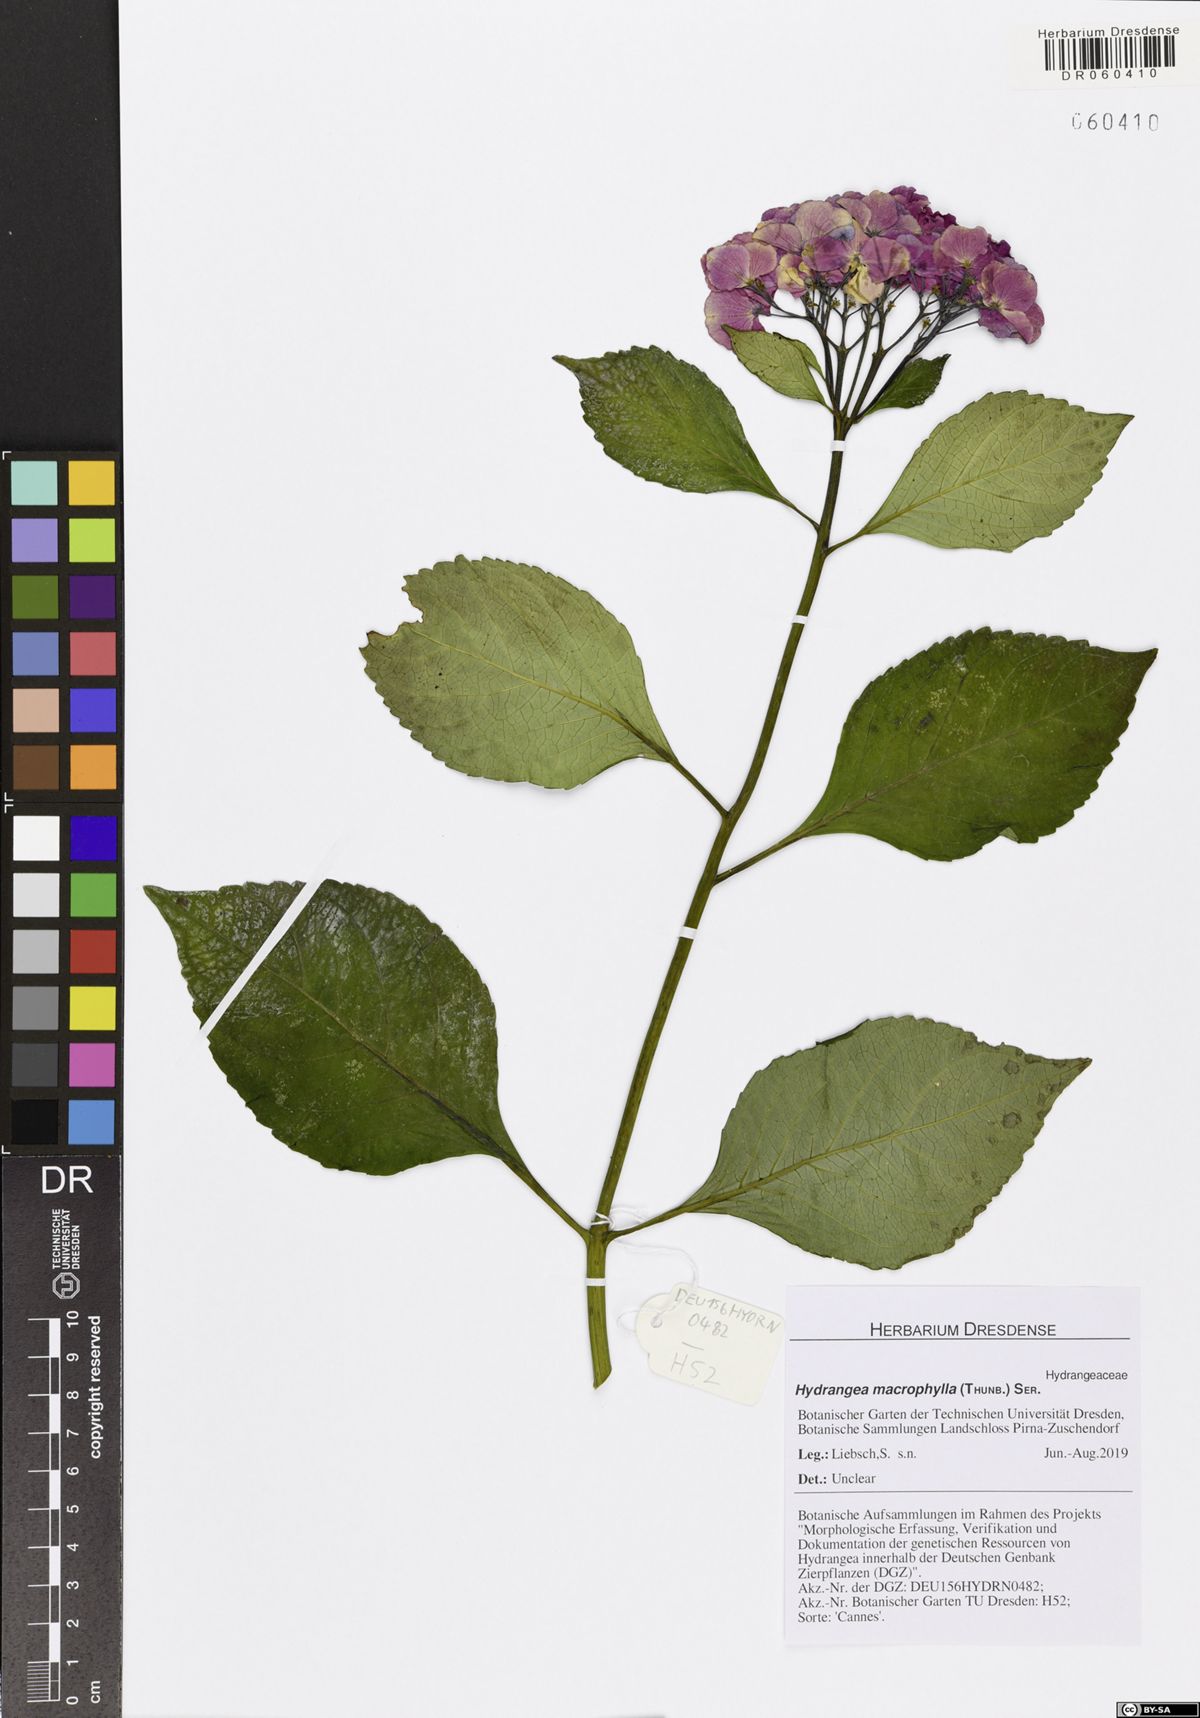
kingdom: Plantae
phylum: Tracheophyta
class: Magnoliopsida
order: Cornales
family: Hydrangeaceae
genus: Hydrangea
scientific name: Hydrangea macrophylla
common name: Hydrangea
